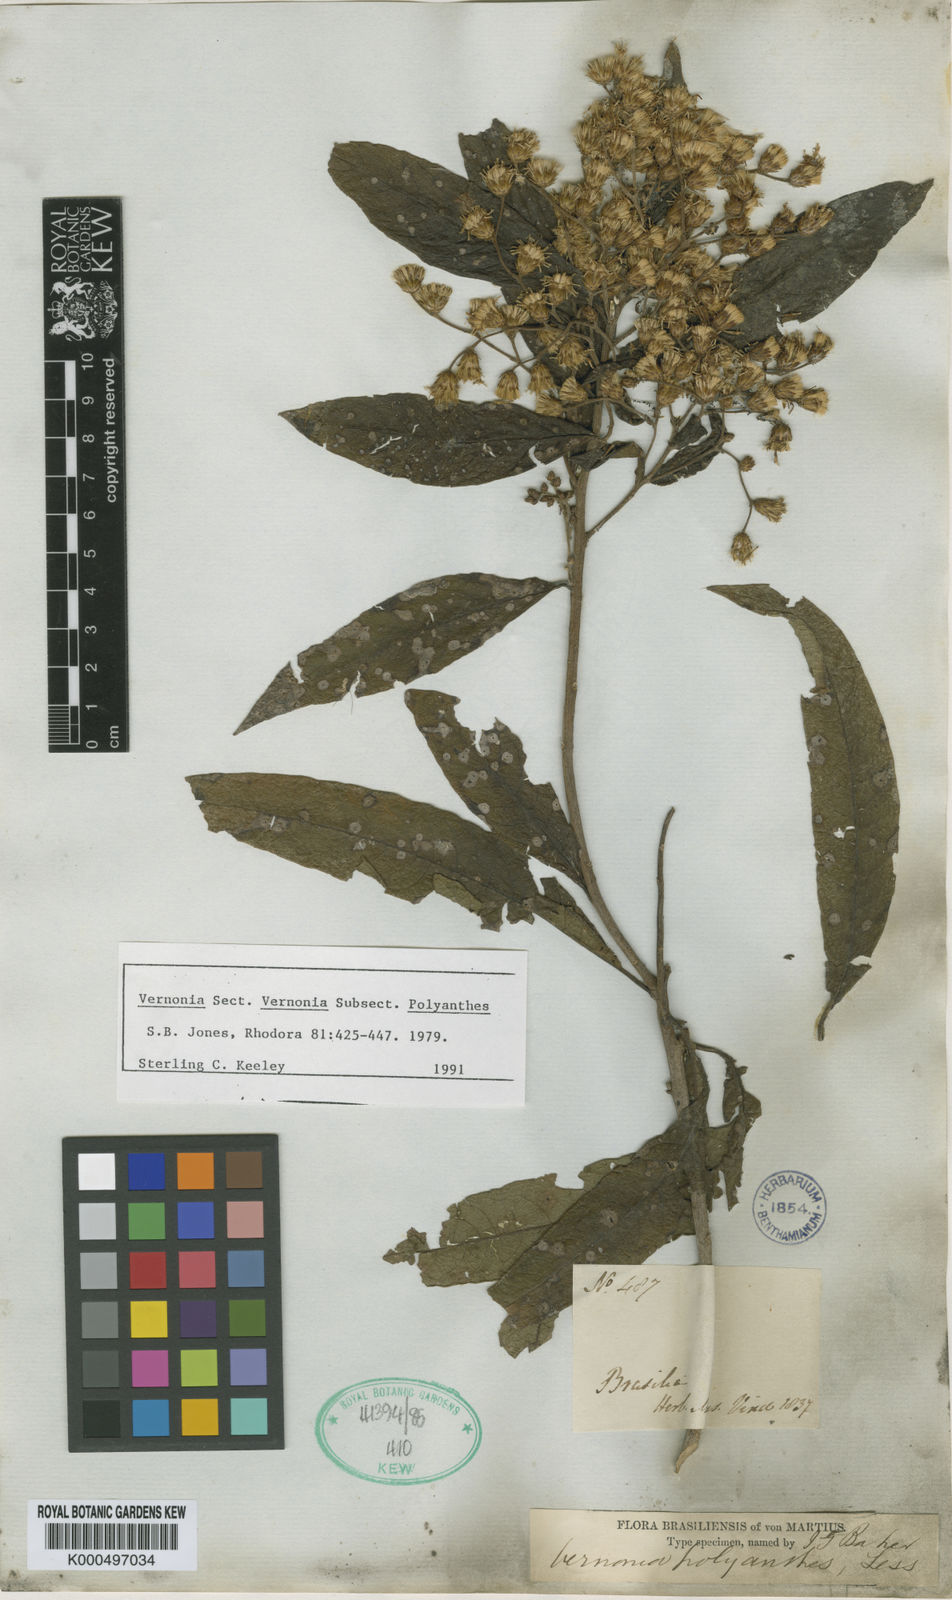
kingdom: Plantae
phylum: Tracheophyta
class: Magnoliopsida
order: Asterales
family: Asteraceae
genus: Vernonanthura
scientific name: Vernonanthura polyanthes
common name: Tree aster
